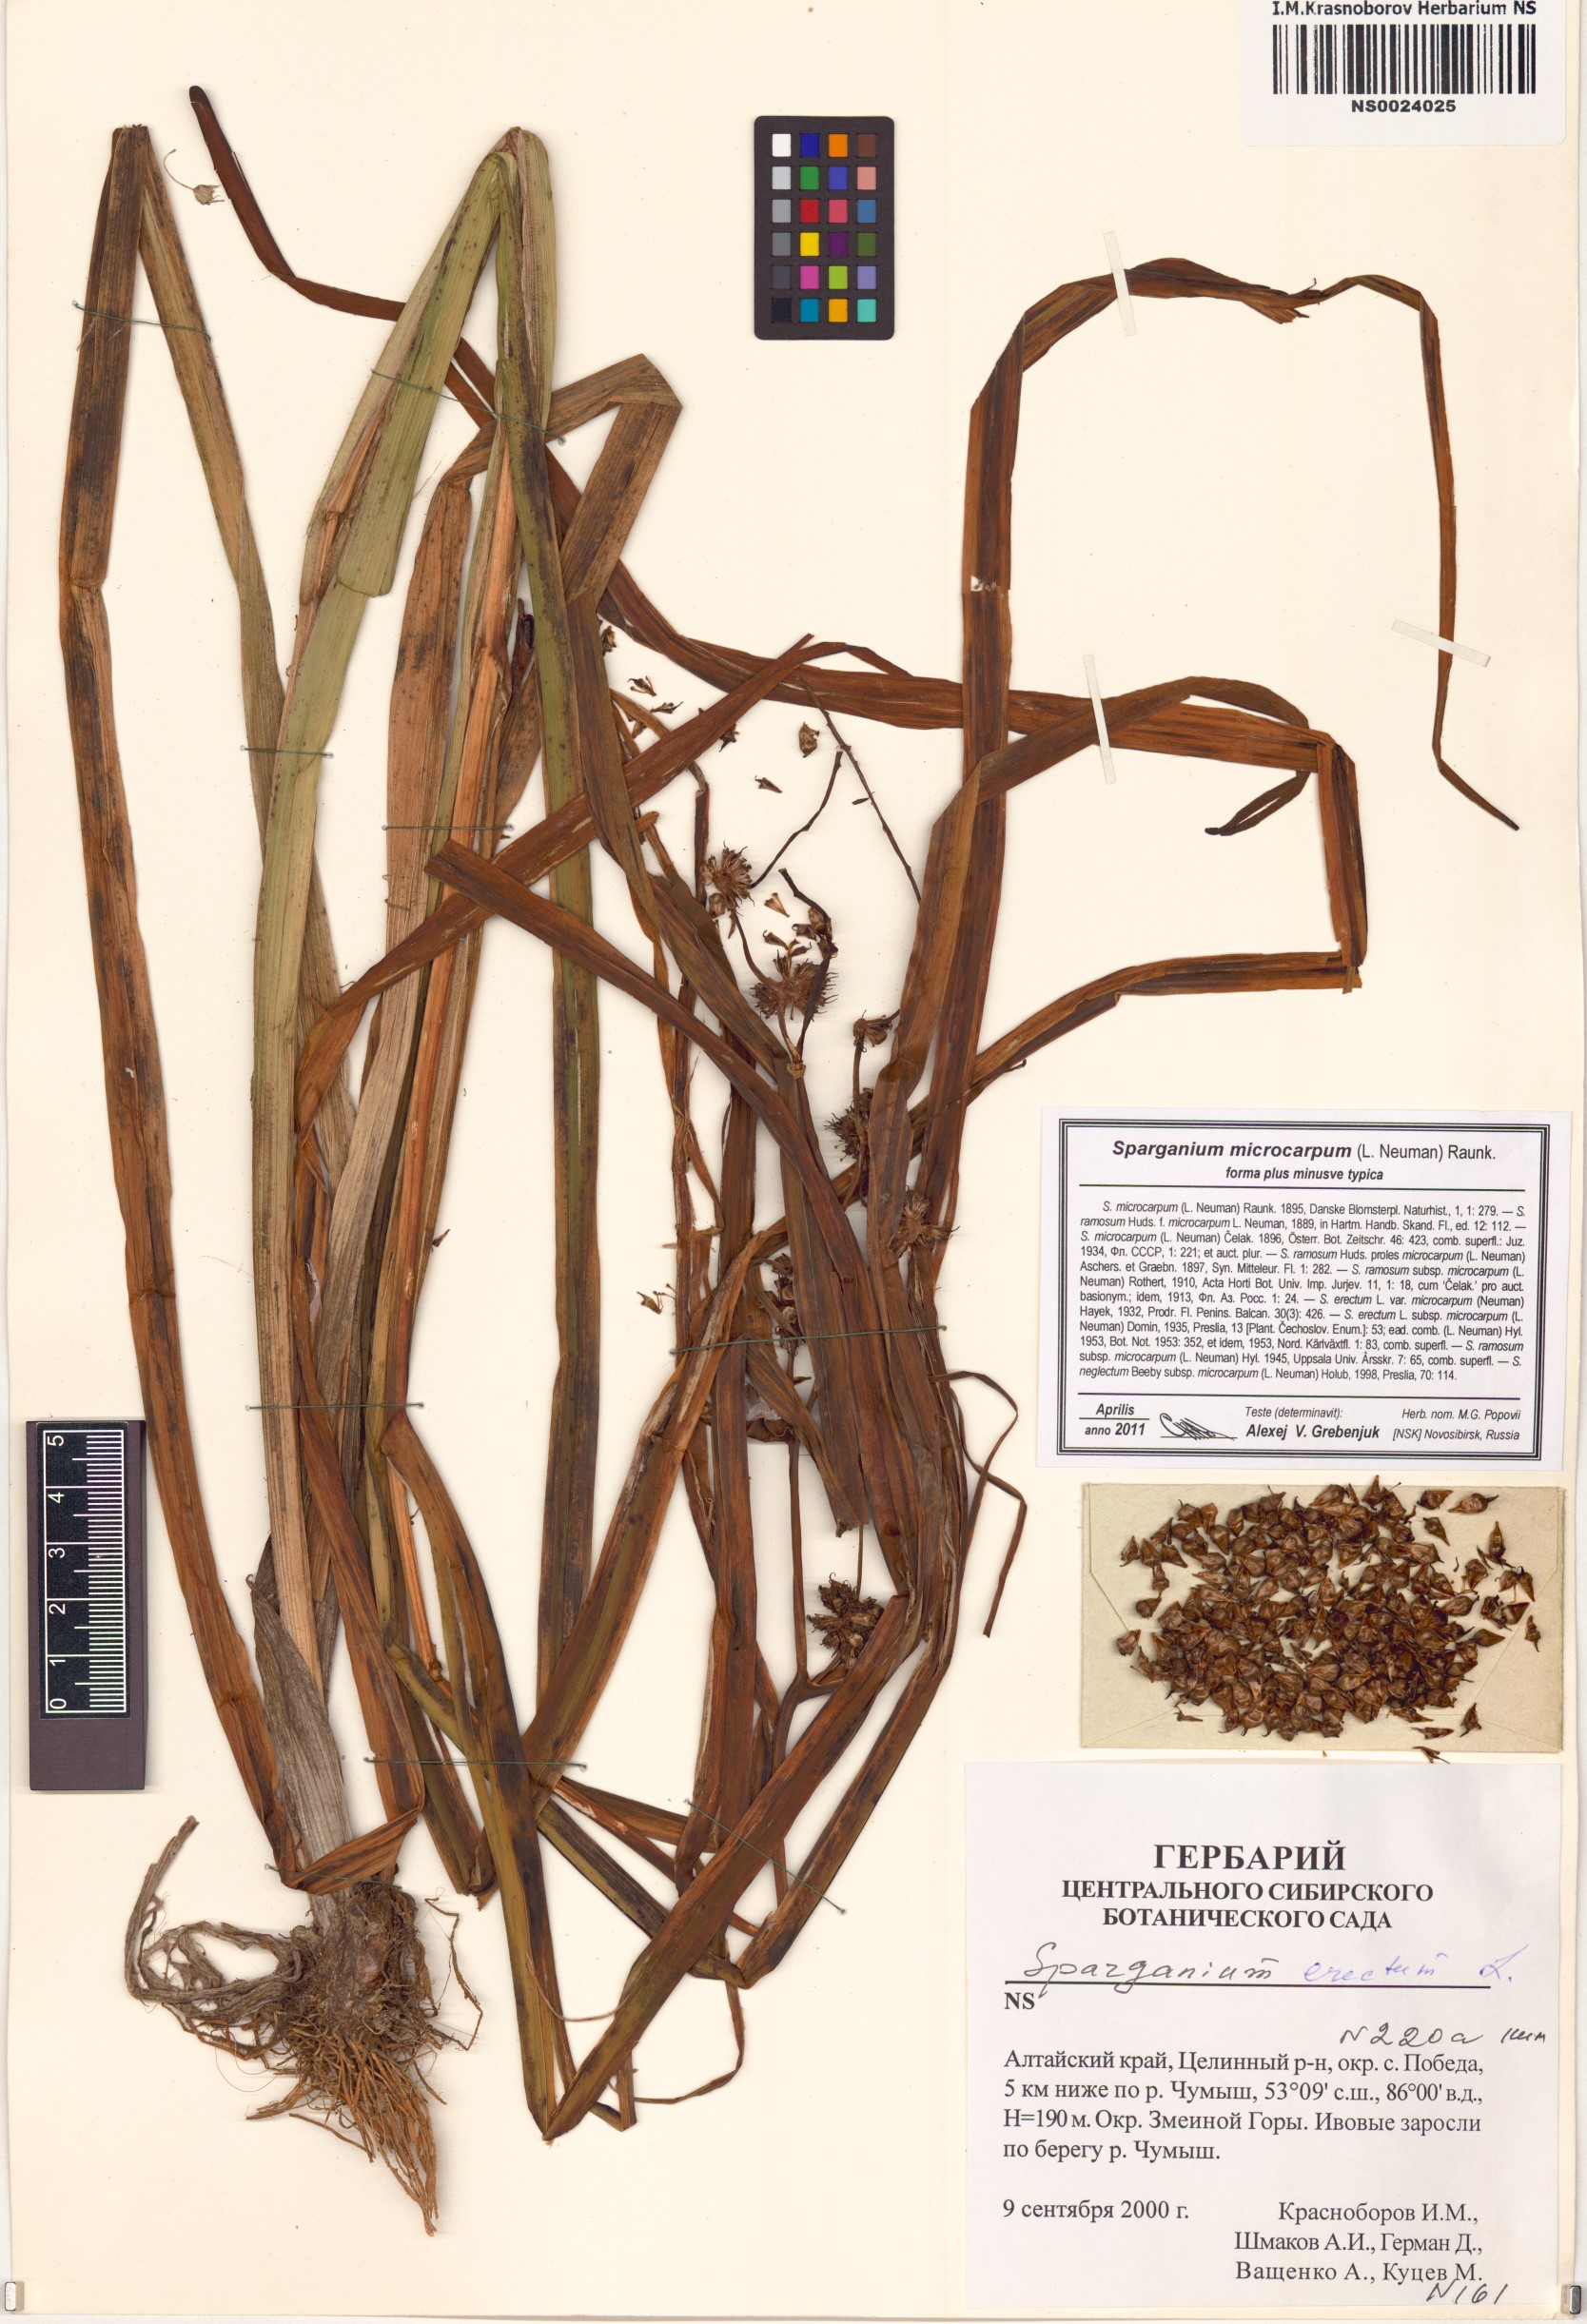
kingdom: Plantae
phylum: Tracheophyta
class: Liliopsida
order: Poales
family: Typhaceae
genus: Sparganium
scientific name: Sparganium erectum
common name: Branched bur-reed
